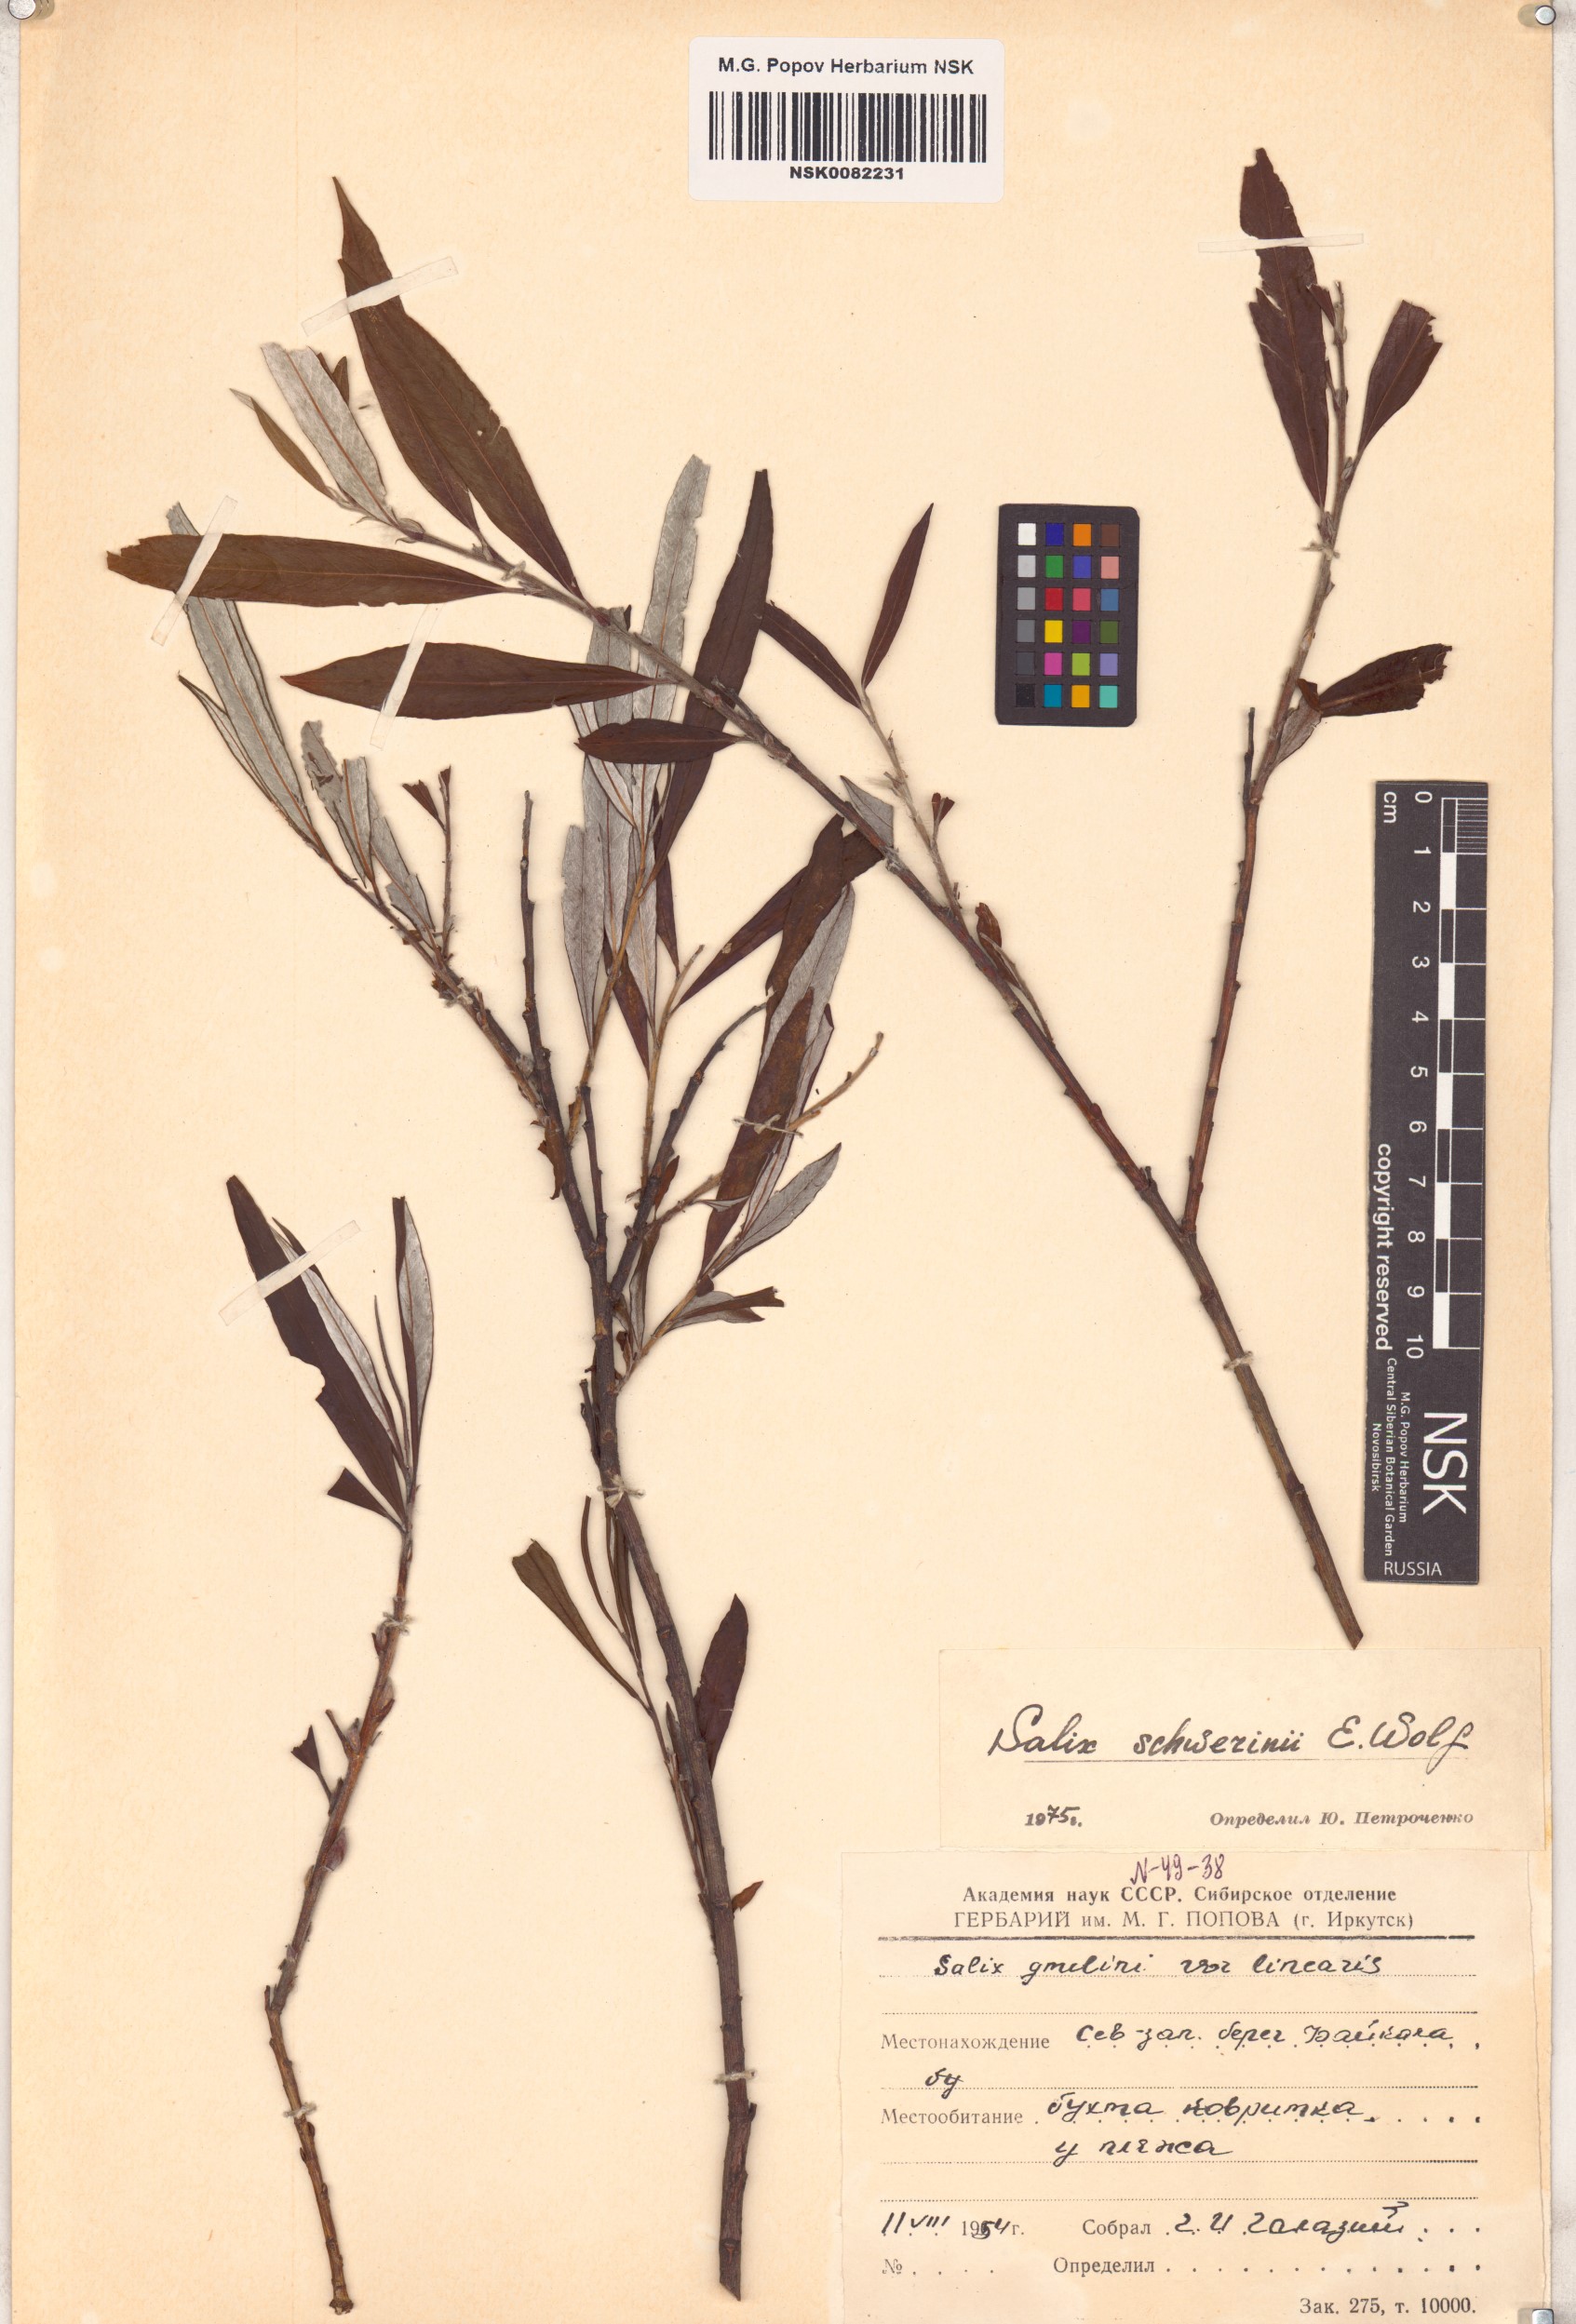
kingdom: Plantae
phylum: Tracheophyta
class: Magnoliopsida
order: Malpighiales
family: Salicaceae
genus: Salix
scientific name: Salix schwerinii
